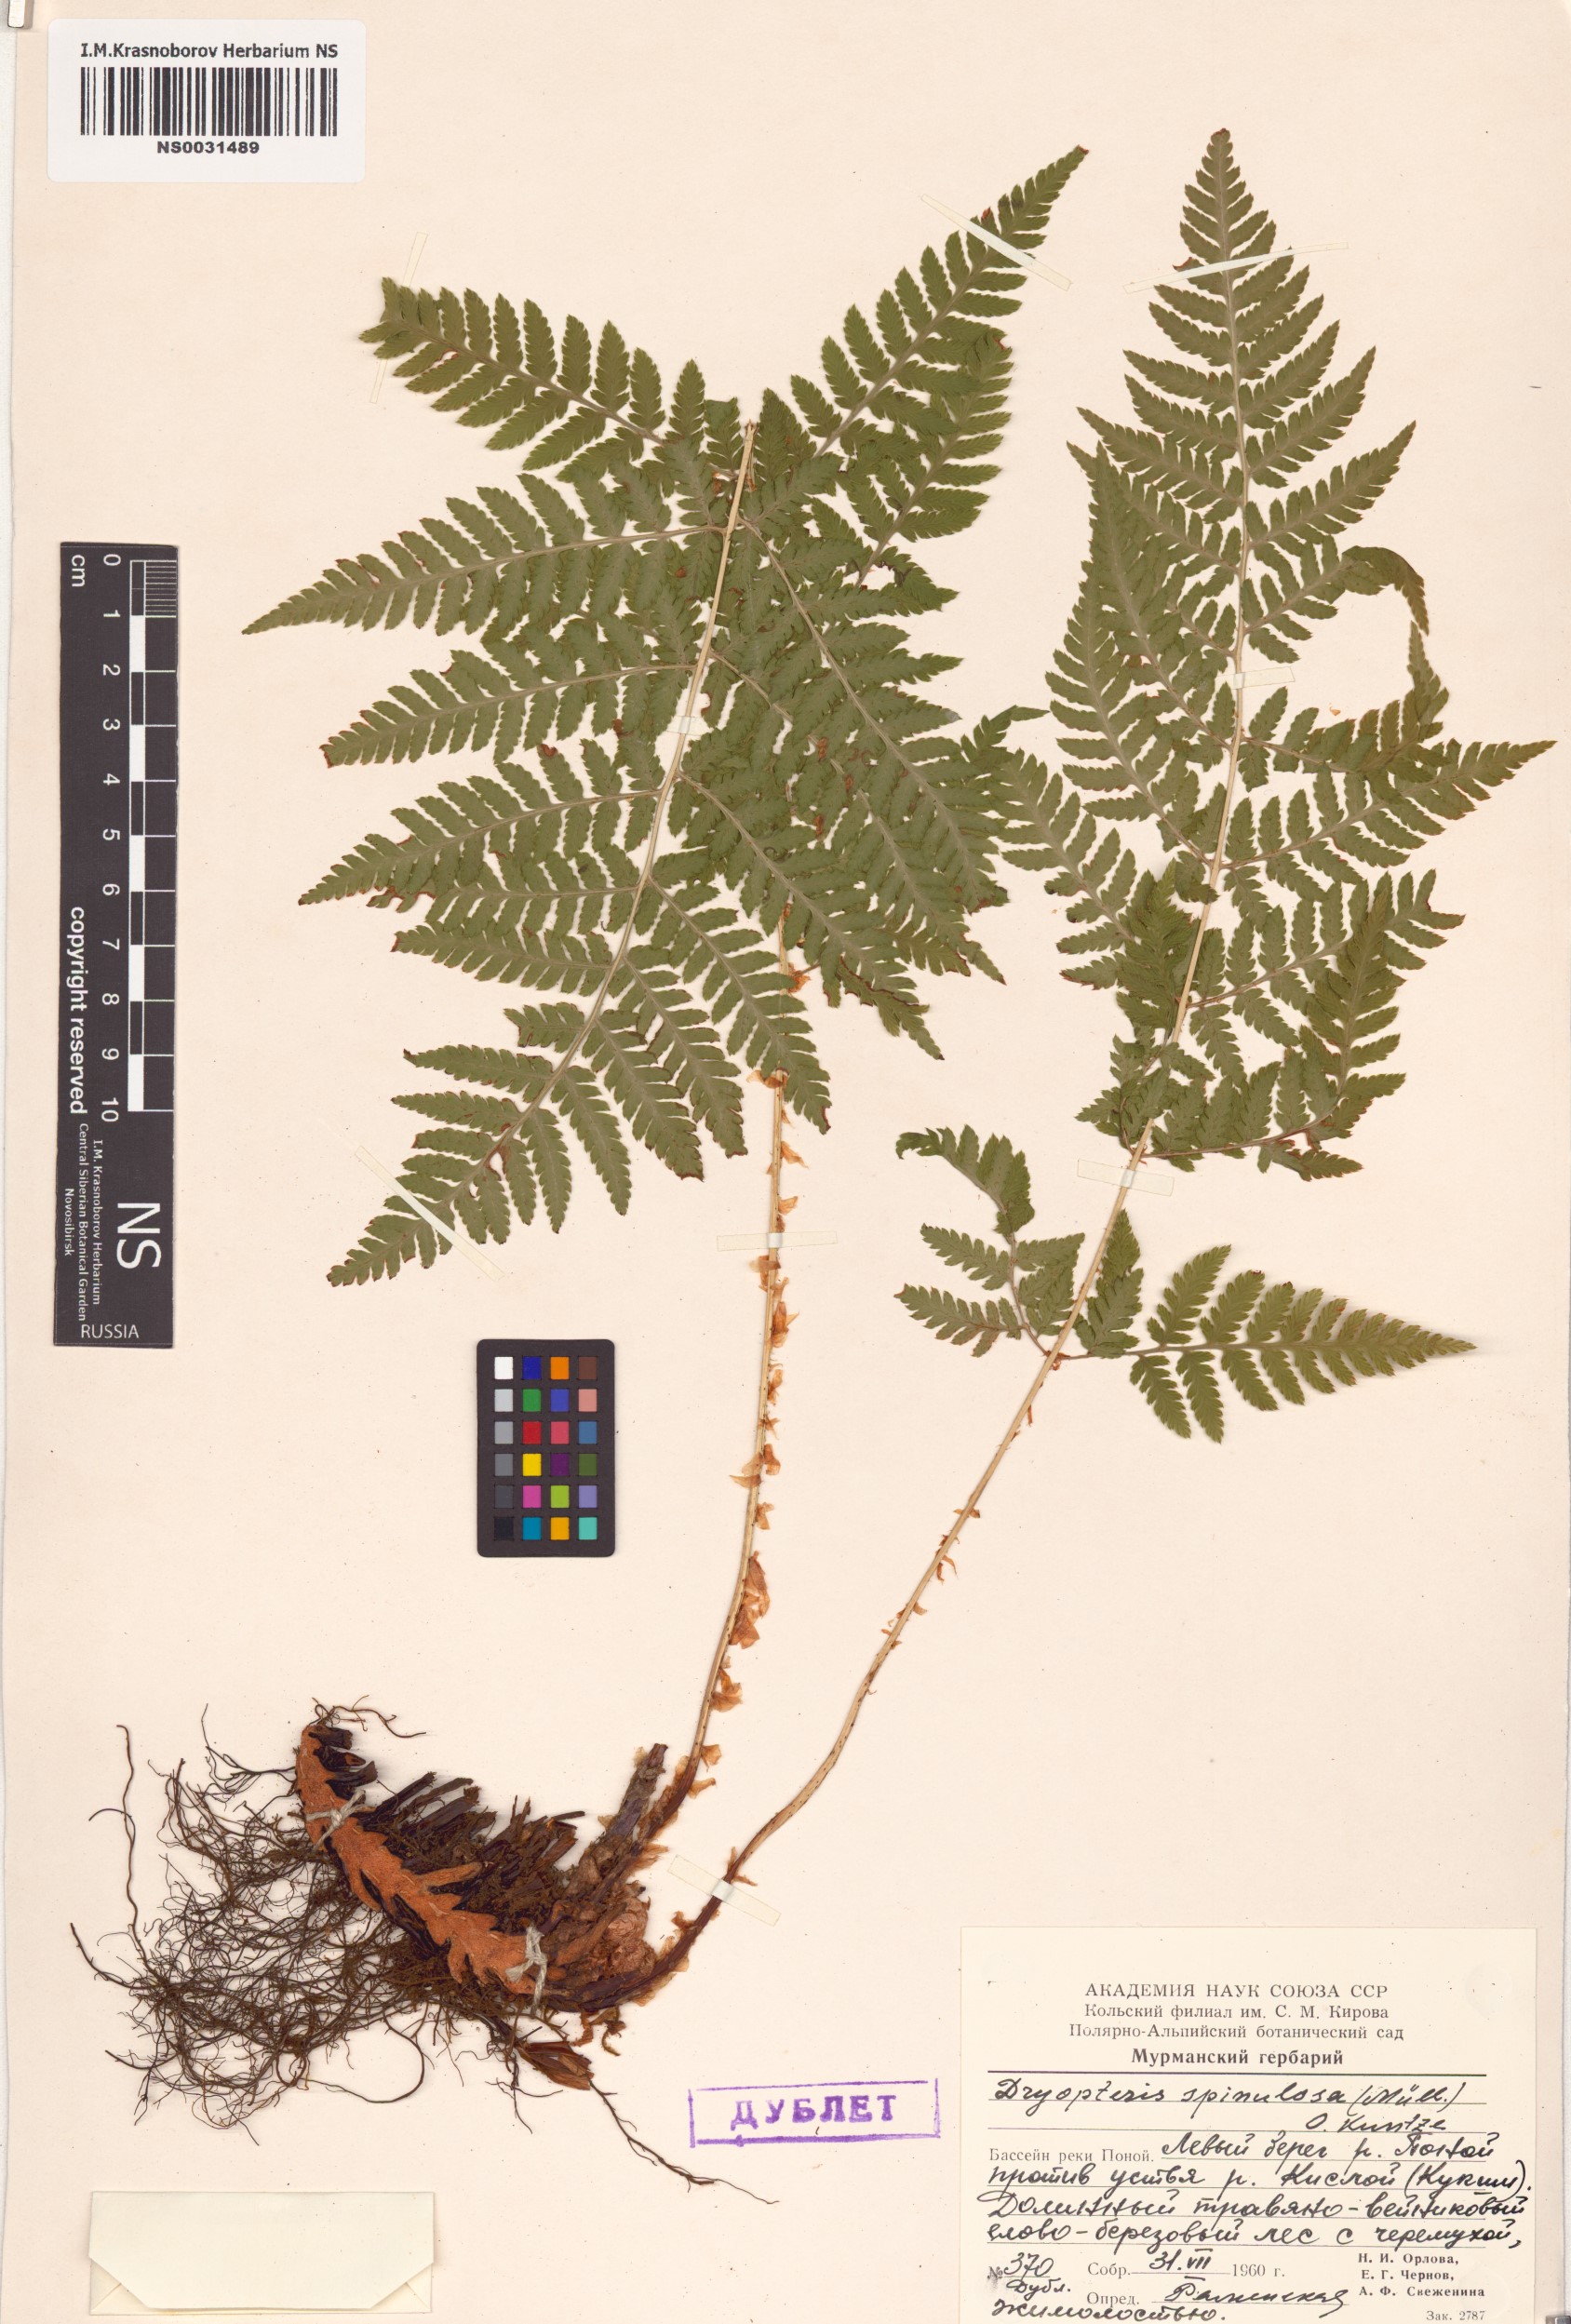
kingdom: Plantae
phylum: Tracheophyta
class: Polypodiopsida
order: Polypodiales
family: Dryopteridaceae
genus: Dryopteris
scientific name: Dryopteris carthusiana
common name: Narrow buckler-fern
